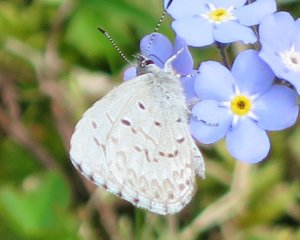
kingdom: Animalia
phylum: Arthropoda
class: Insecta
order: Lepidoptera
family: Lycaenidae
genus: Celastrina
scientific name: Celastrina lucia
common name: Northern Spring Azure
